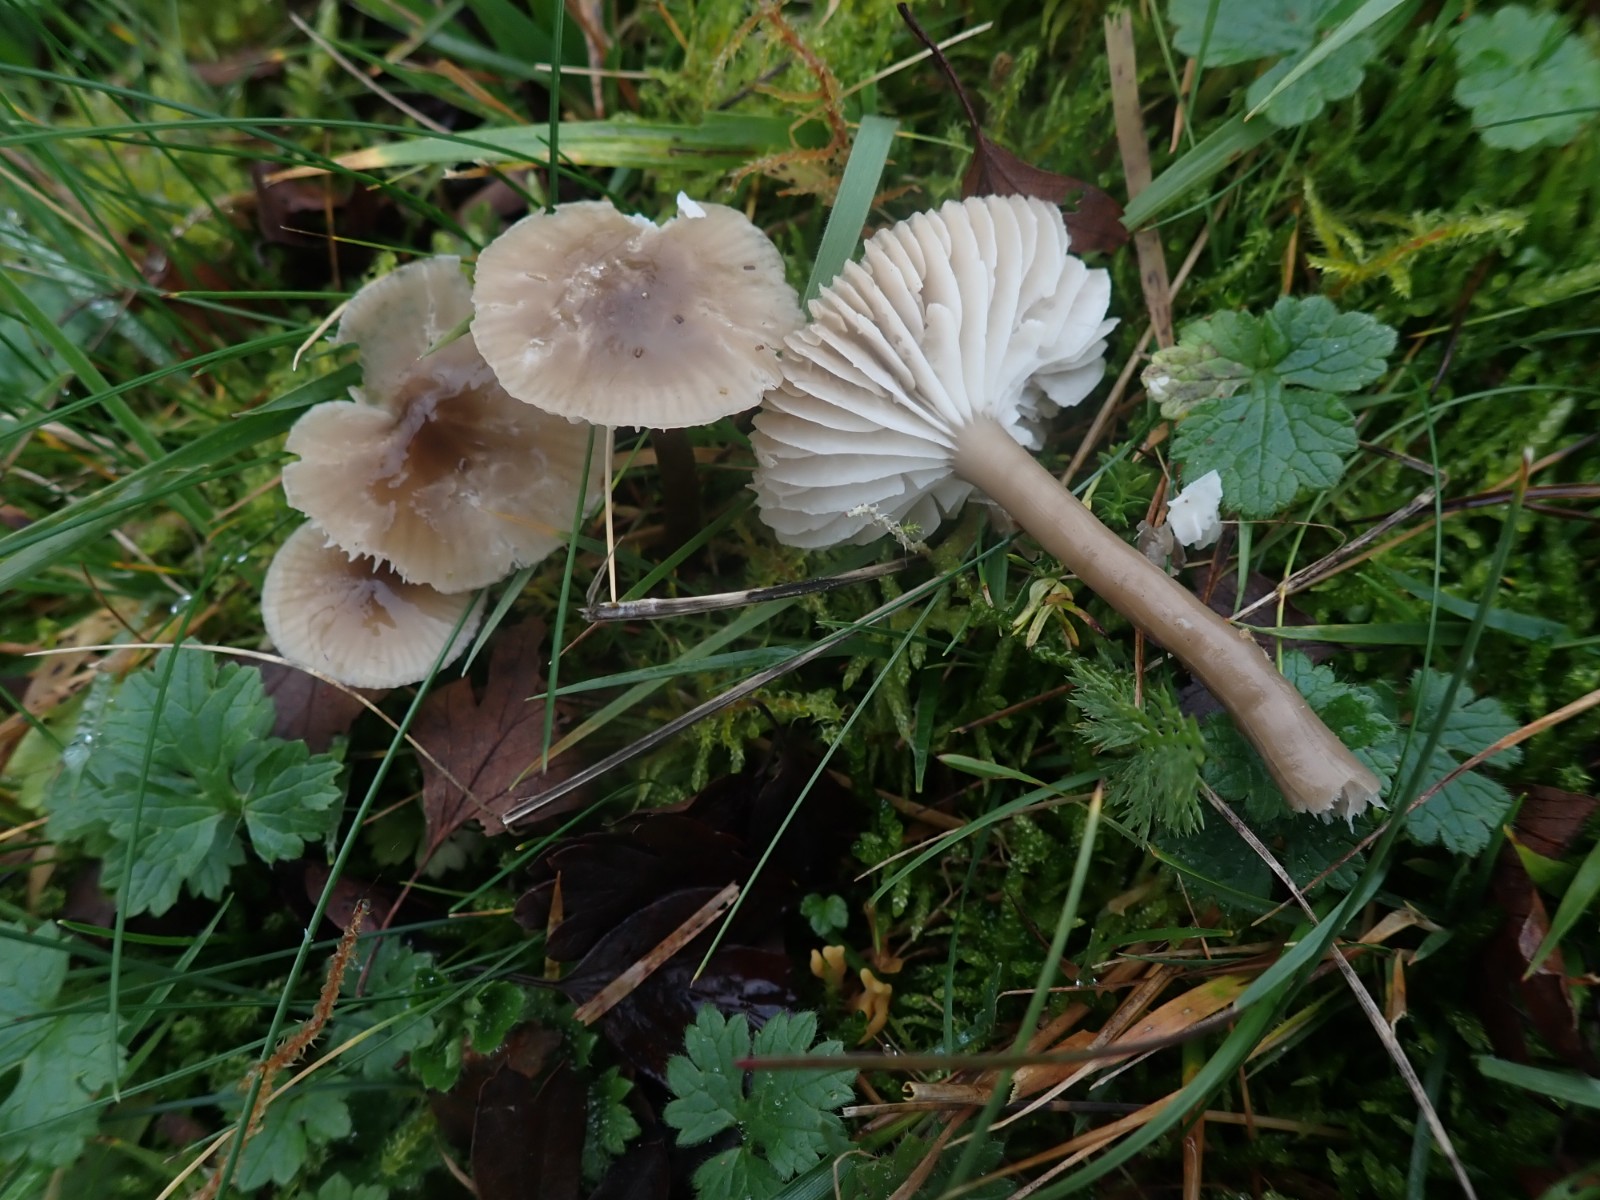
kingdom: Fungi
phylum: Basidiomycota
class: Agaricomycetes
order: Agaricales
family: Hygrophoraceae
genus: Gliophorus
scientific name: Gliophorus irrigatus
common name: slimet vokshat
